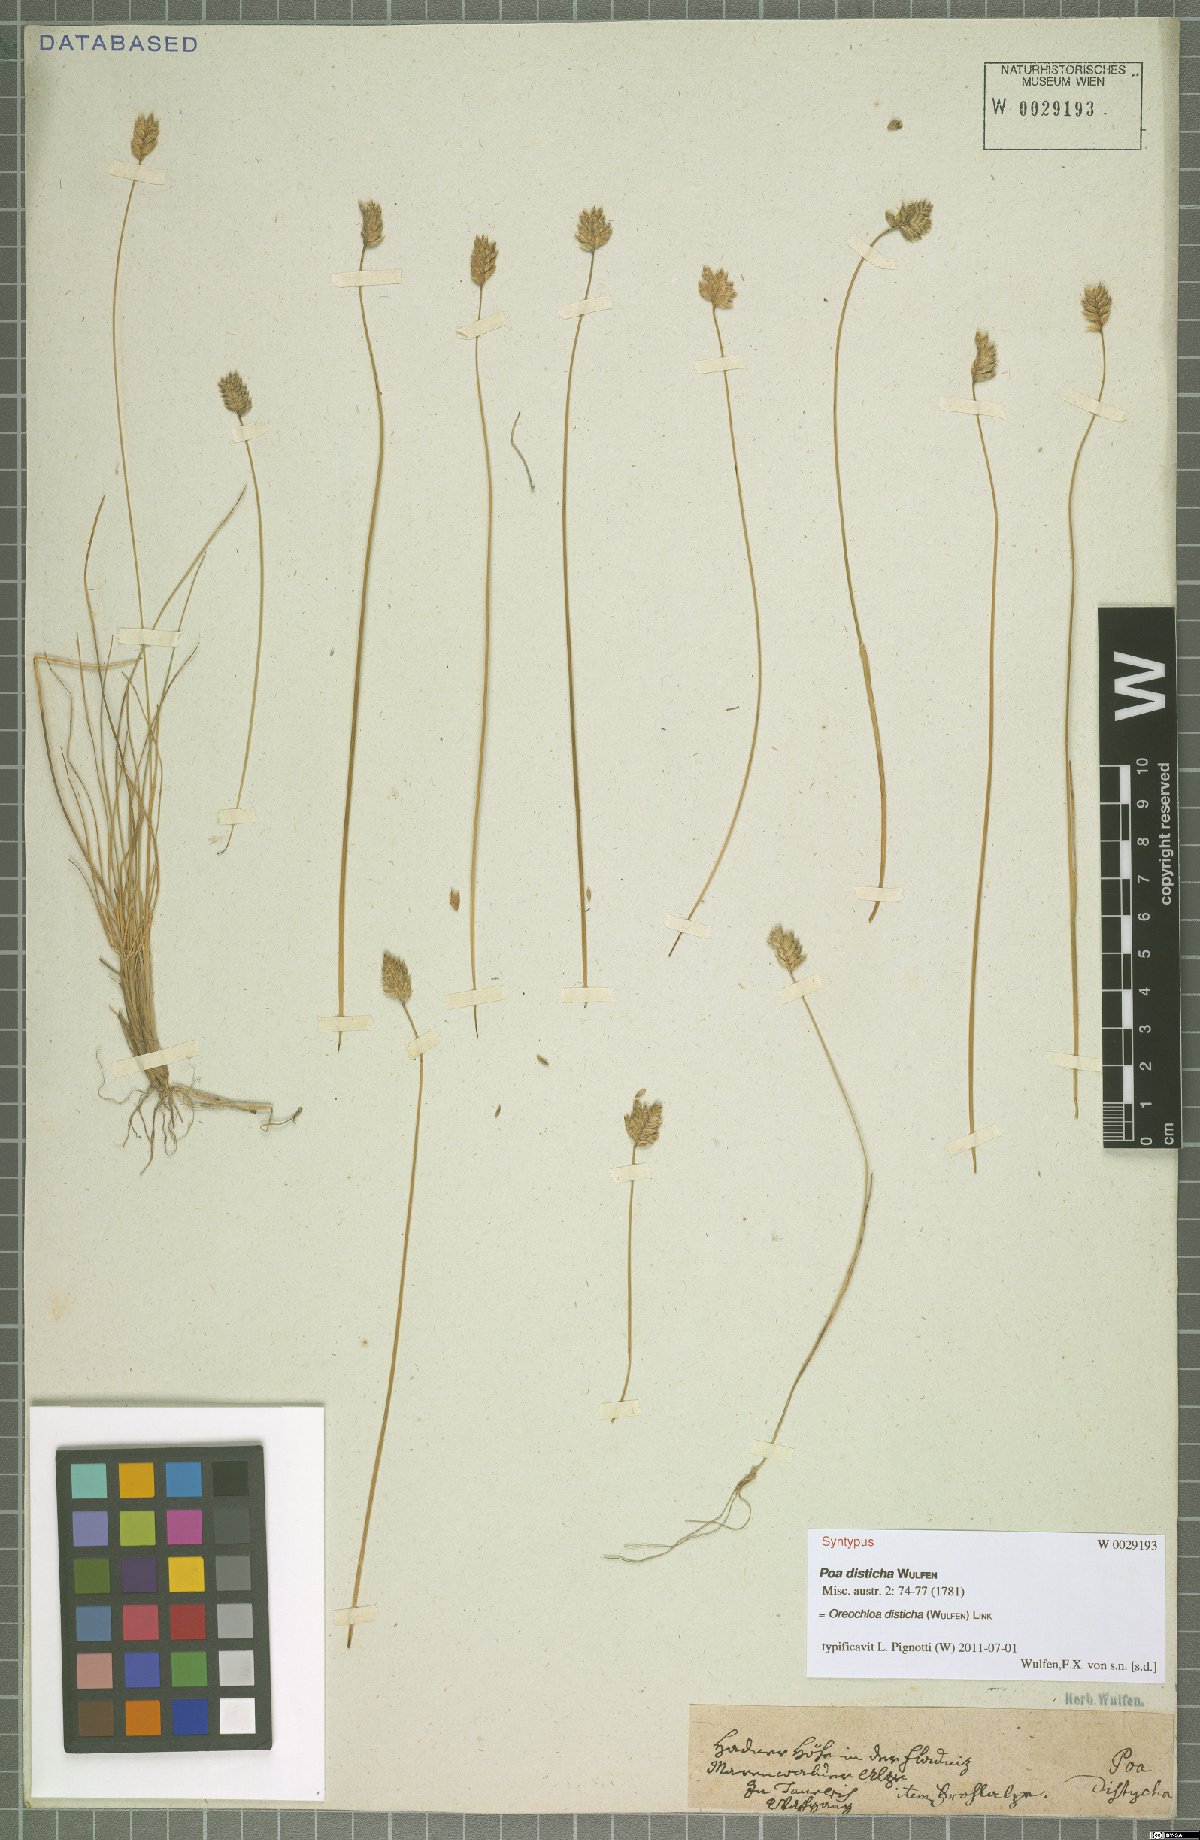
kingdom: Plantae
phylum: Tracheophyta
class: Liliopsida
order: Poales
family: Poaceae
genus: Oreochloa
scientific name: Oreochloa disticha
